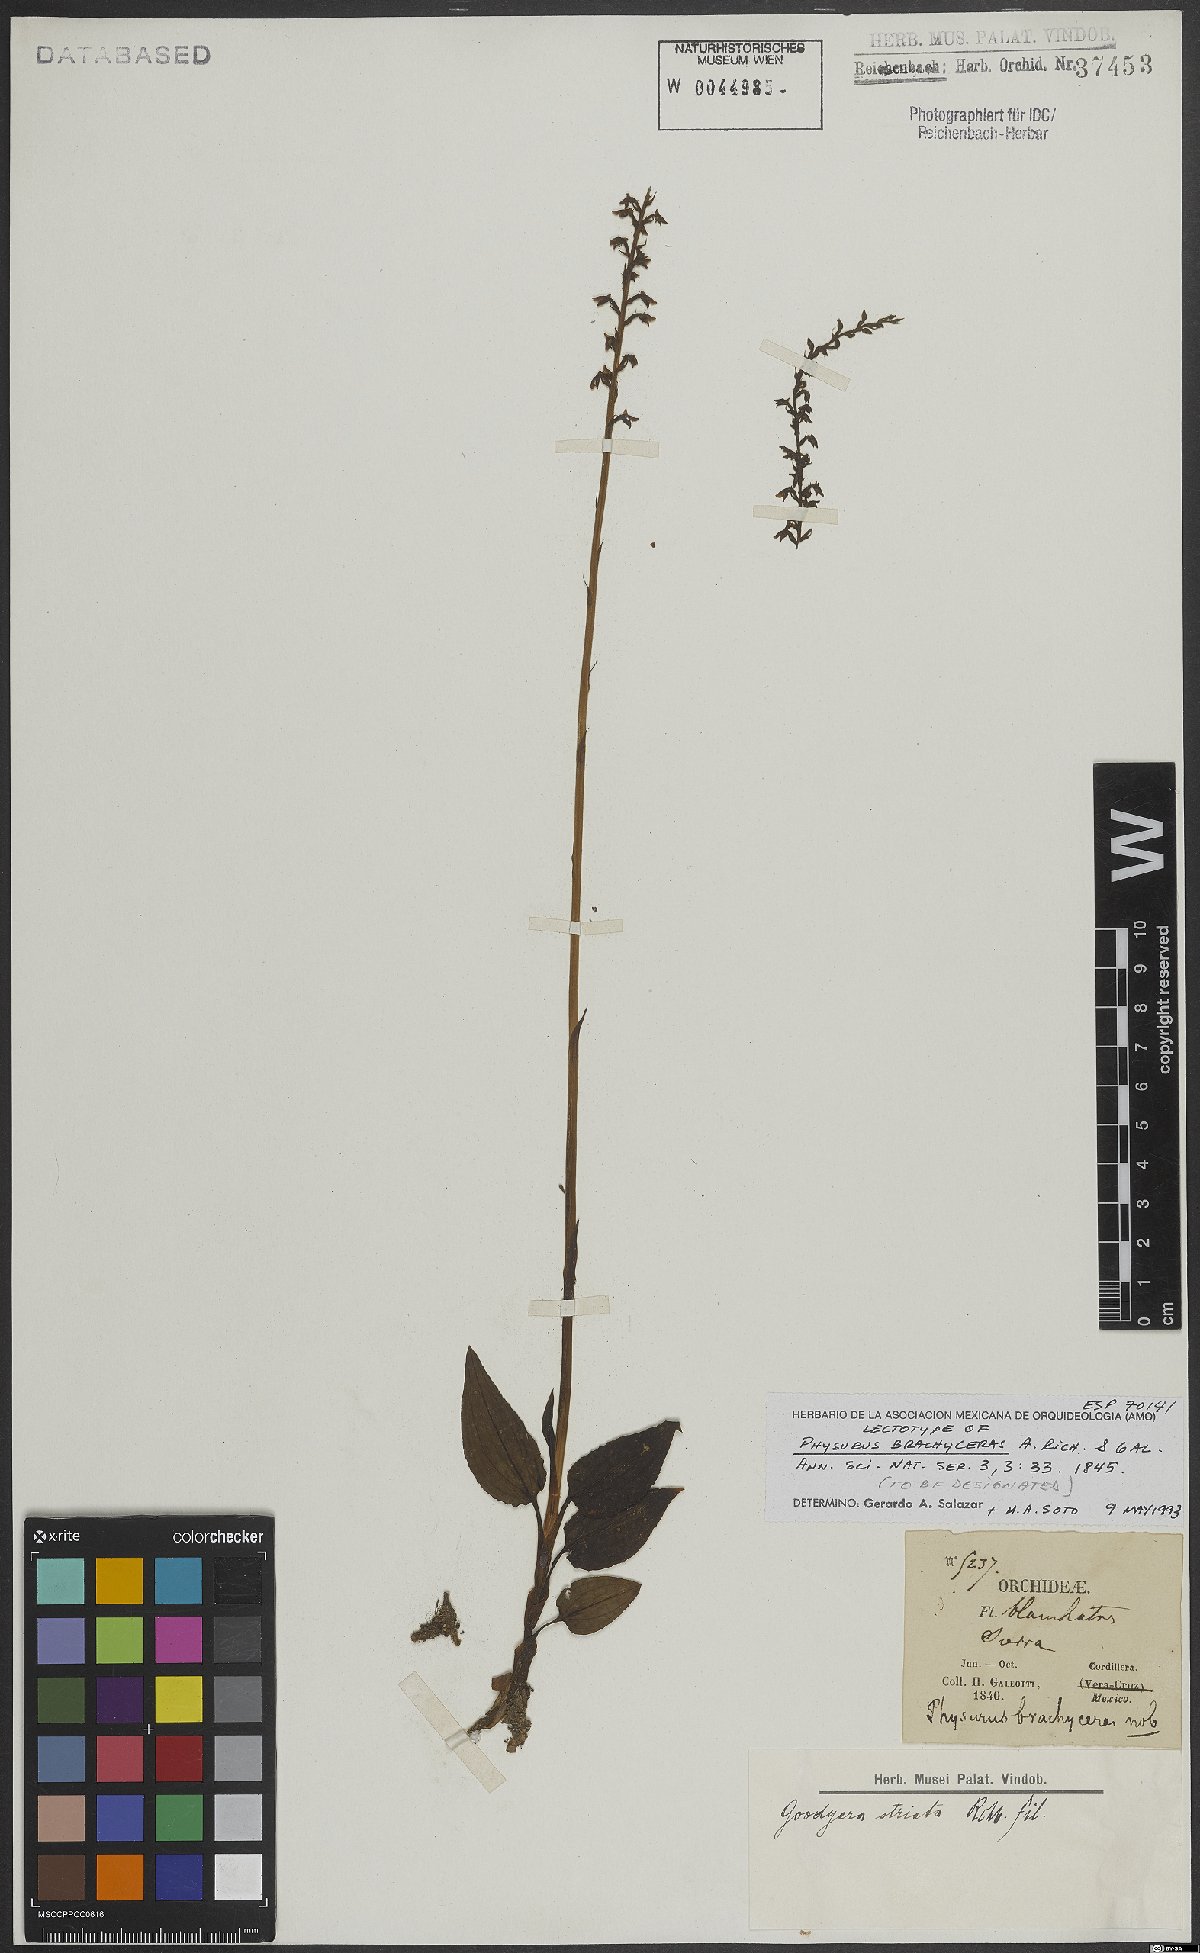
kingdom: Plantae
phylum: Tracheophyta
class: Liliopsida
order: Asparagales
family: Orchidaceae
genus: Goodyera
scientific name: Goodyera striata
